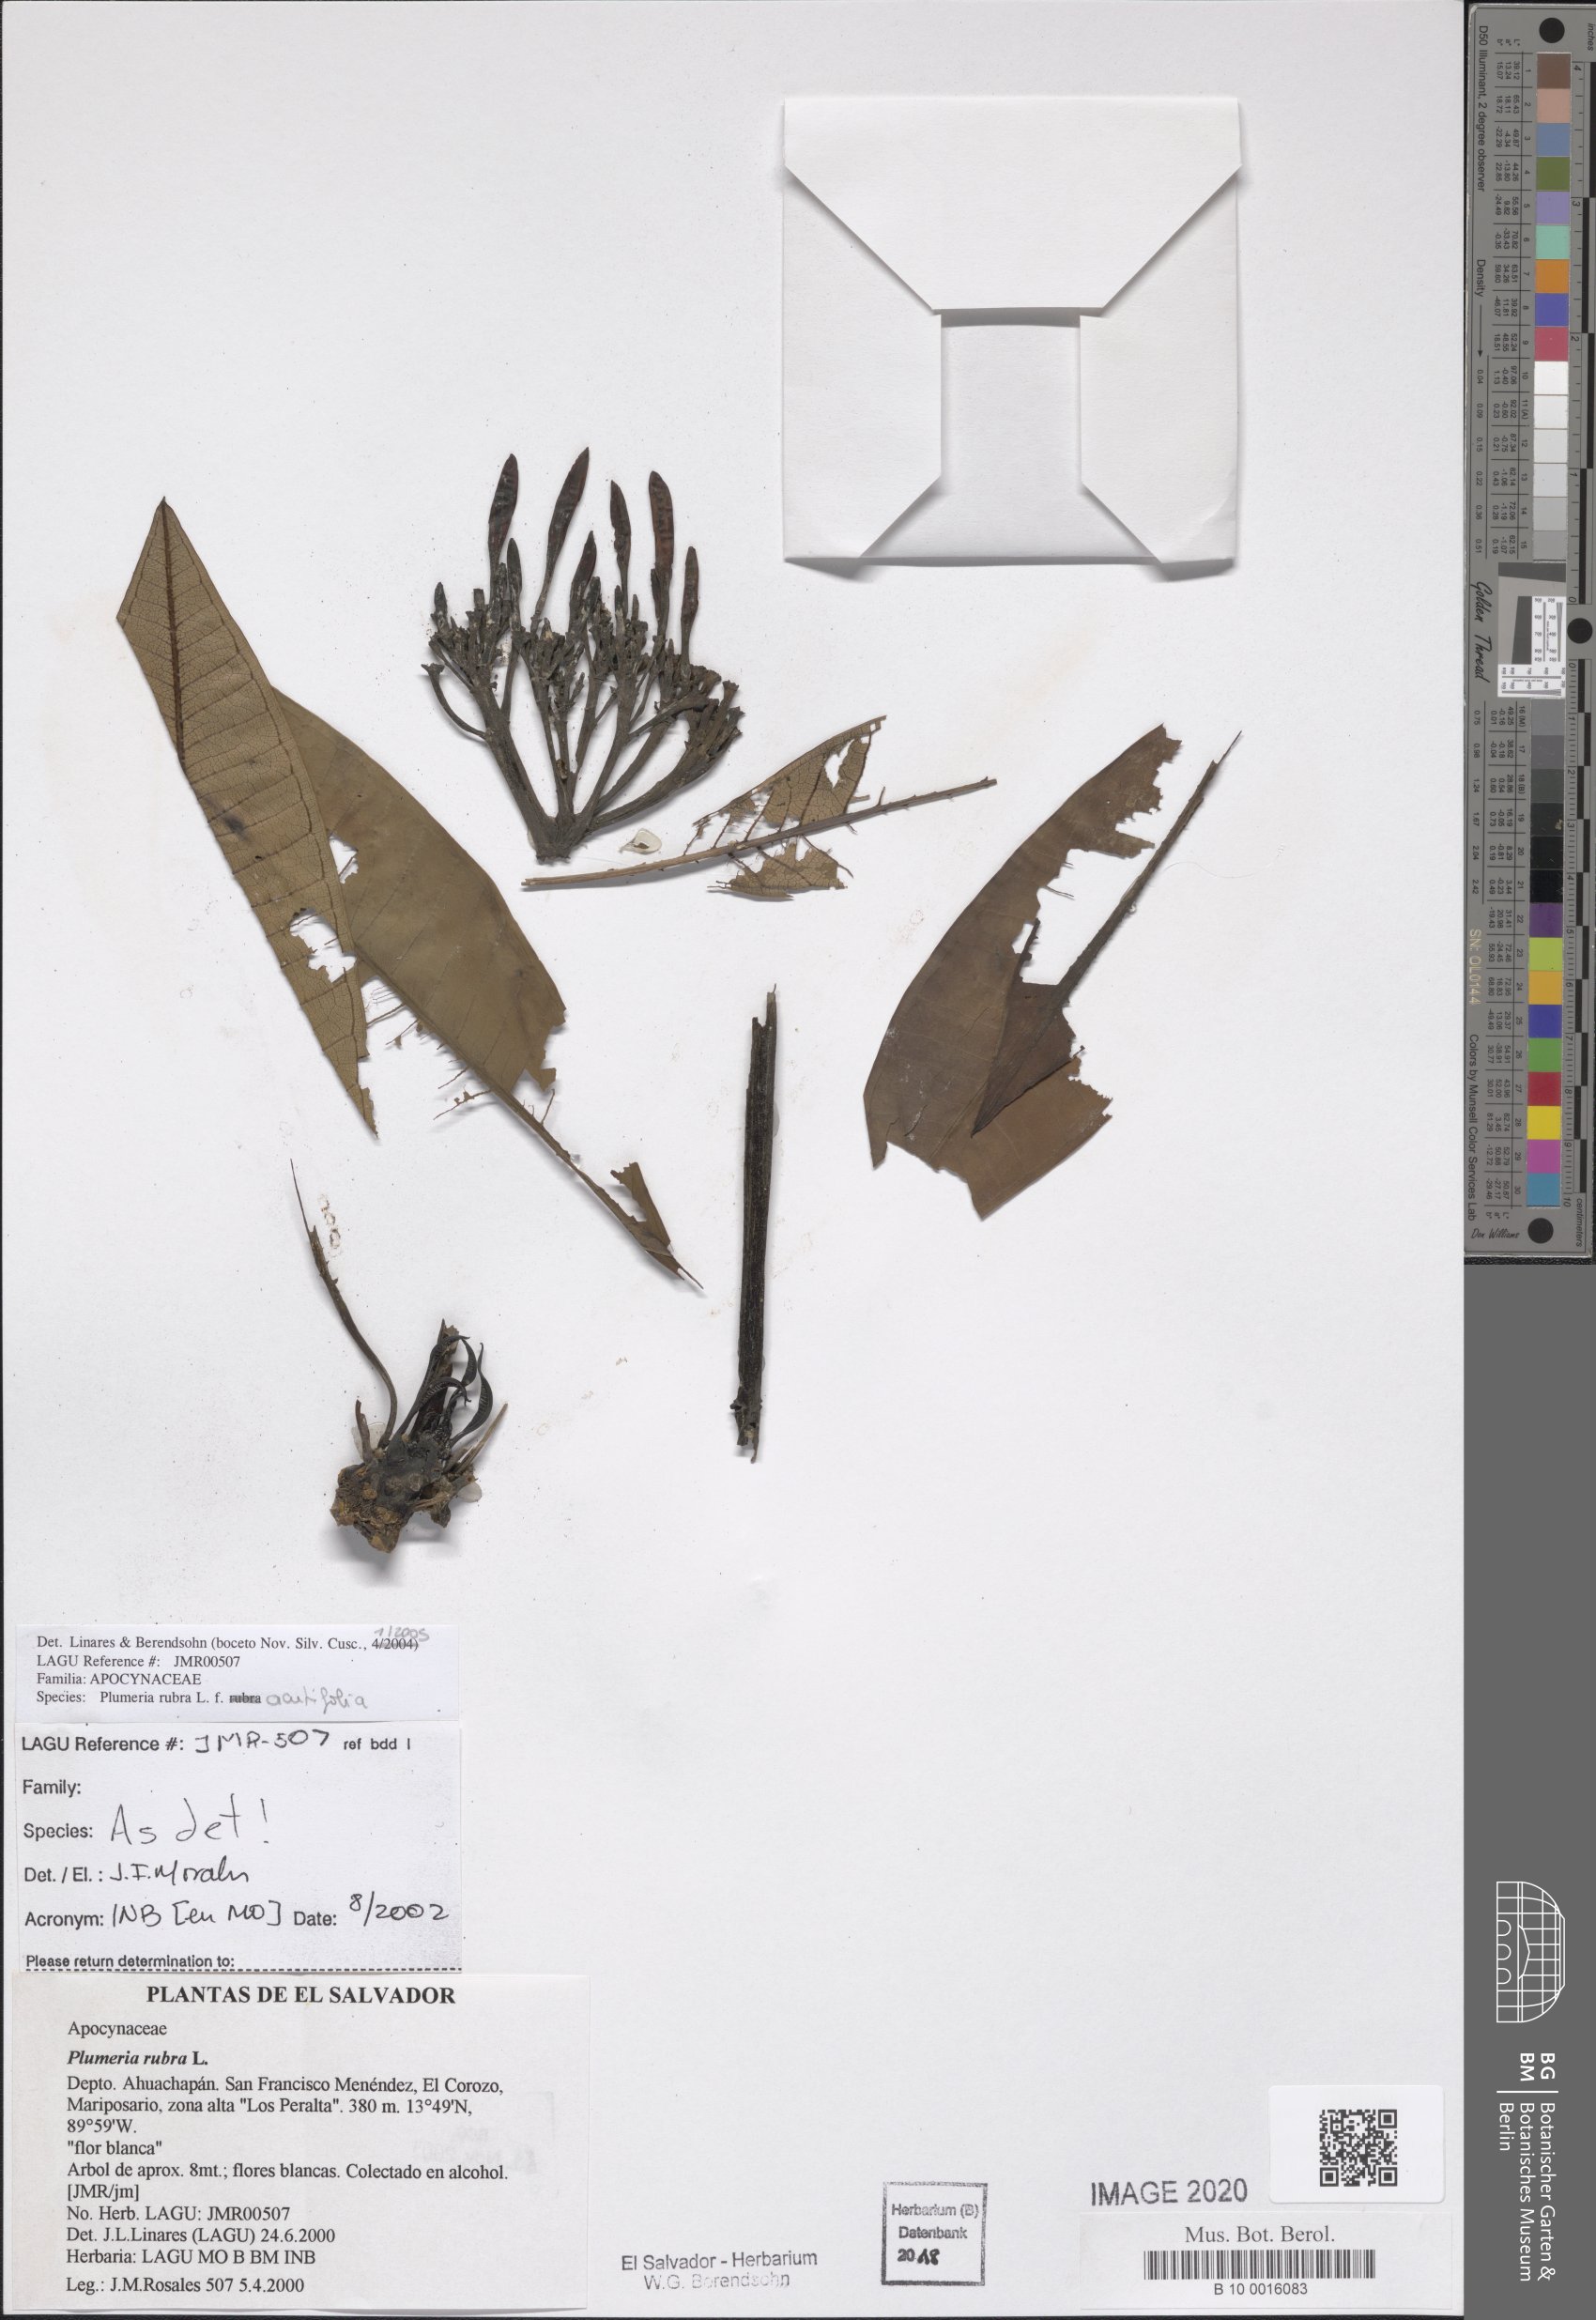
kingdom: Plantae
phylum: Tracheophyta
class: Magnoliopsida
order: Gentianales
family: Apocynaceae
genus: Plumeria
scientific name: Plumeria rubra
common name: Pagoda-tree
